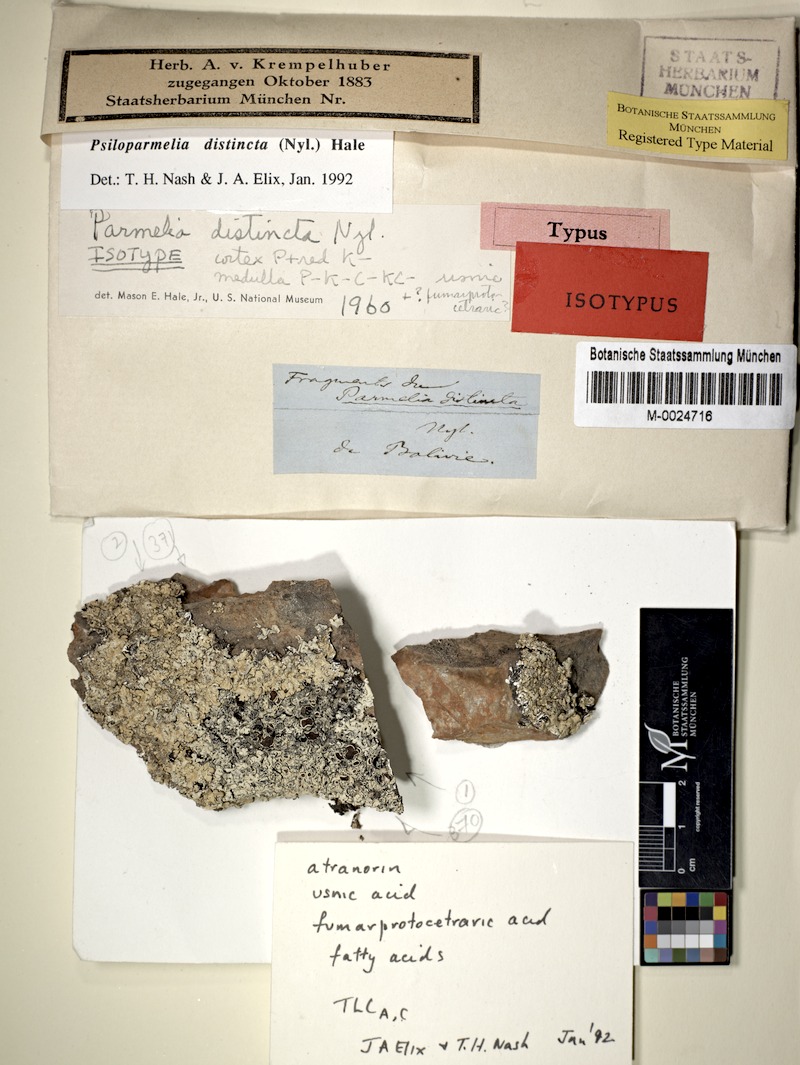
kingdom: Fungi
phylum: Ascomycota
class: Lecanoromycetes
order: Lecanorales
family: Parmeliaceae
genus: Psiloparmelia
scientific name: Psiloparmelia distincta
